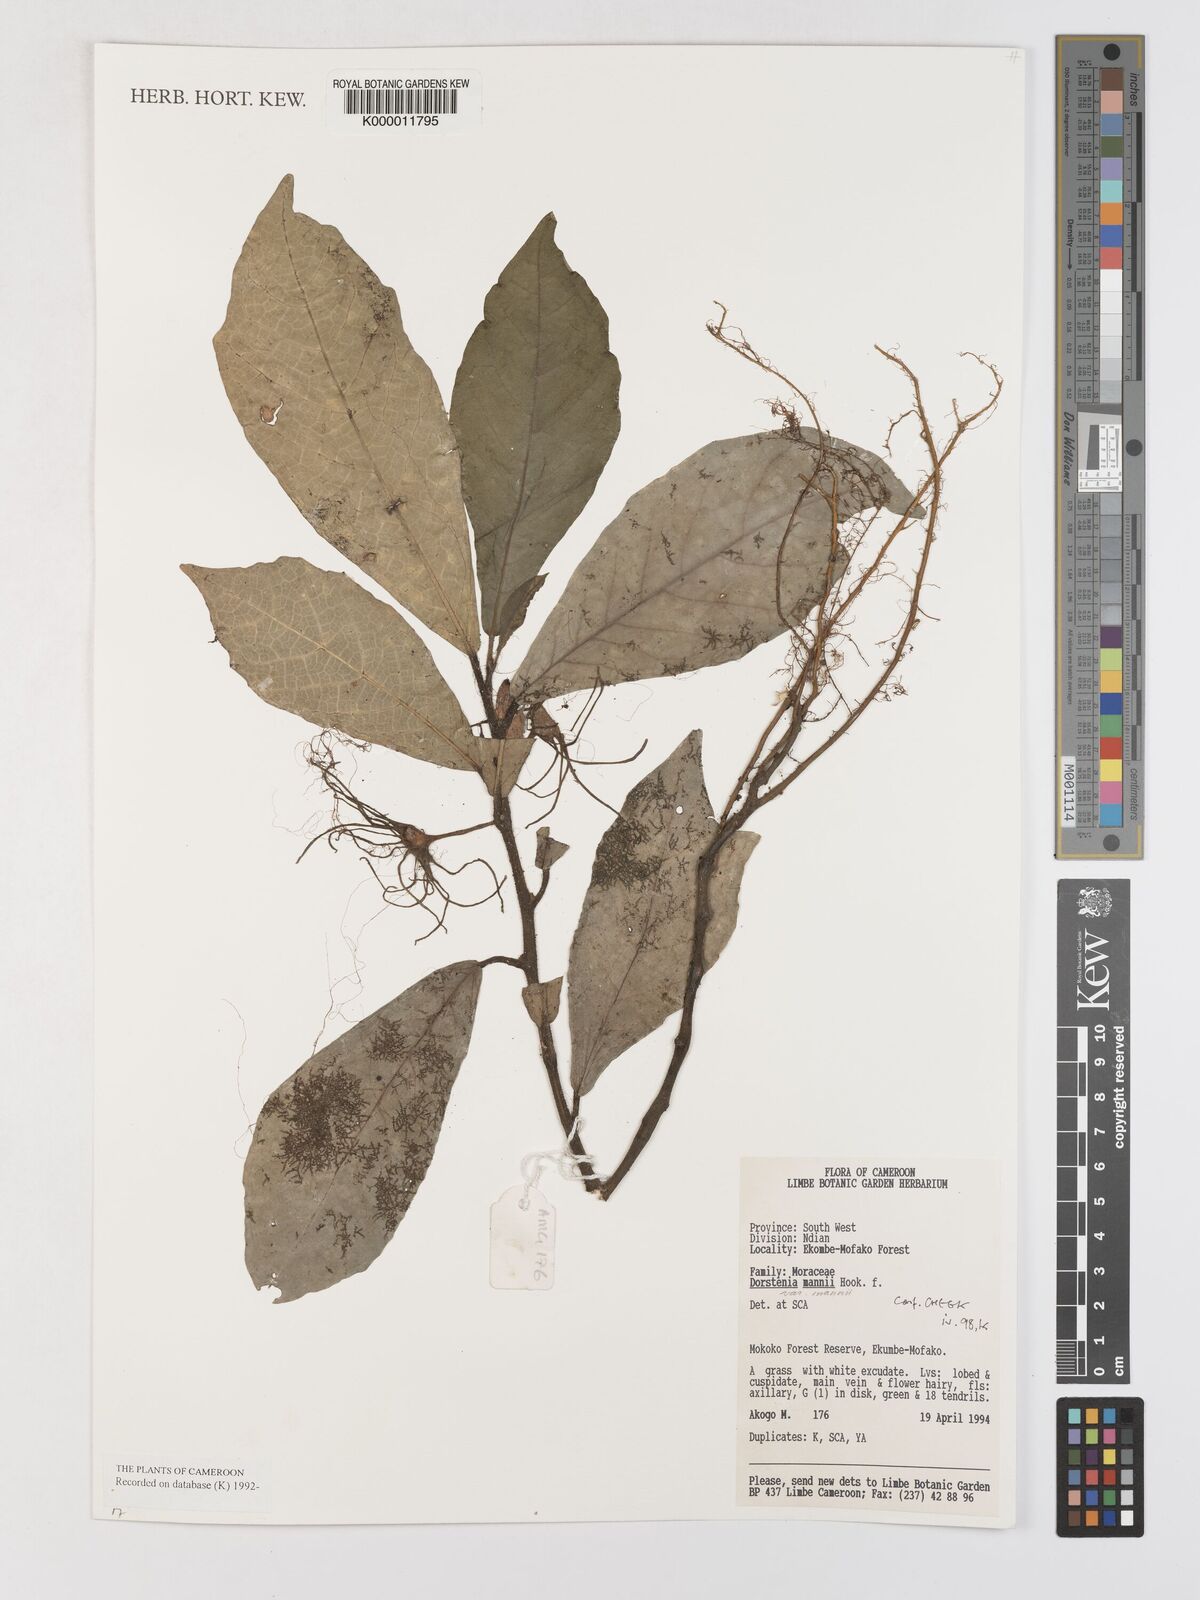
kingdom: Plantae
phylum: Tracheophyta
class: Magnoliopsida
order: Rosales
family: Moraceae
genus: Dorstenia
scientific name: Dorstenia mannii
